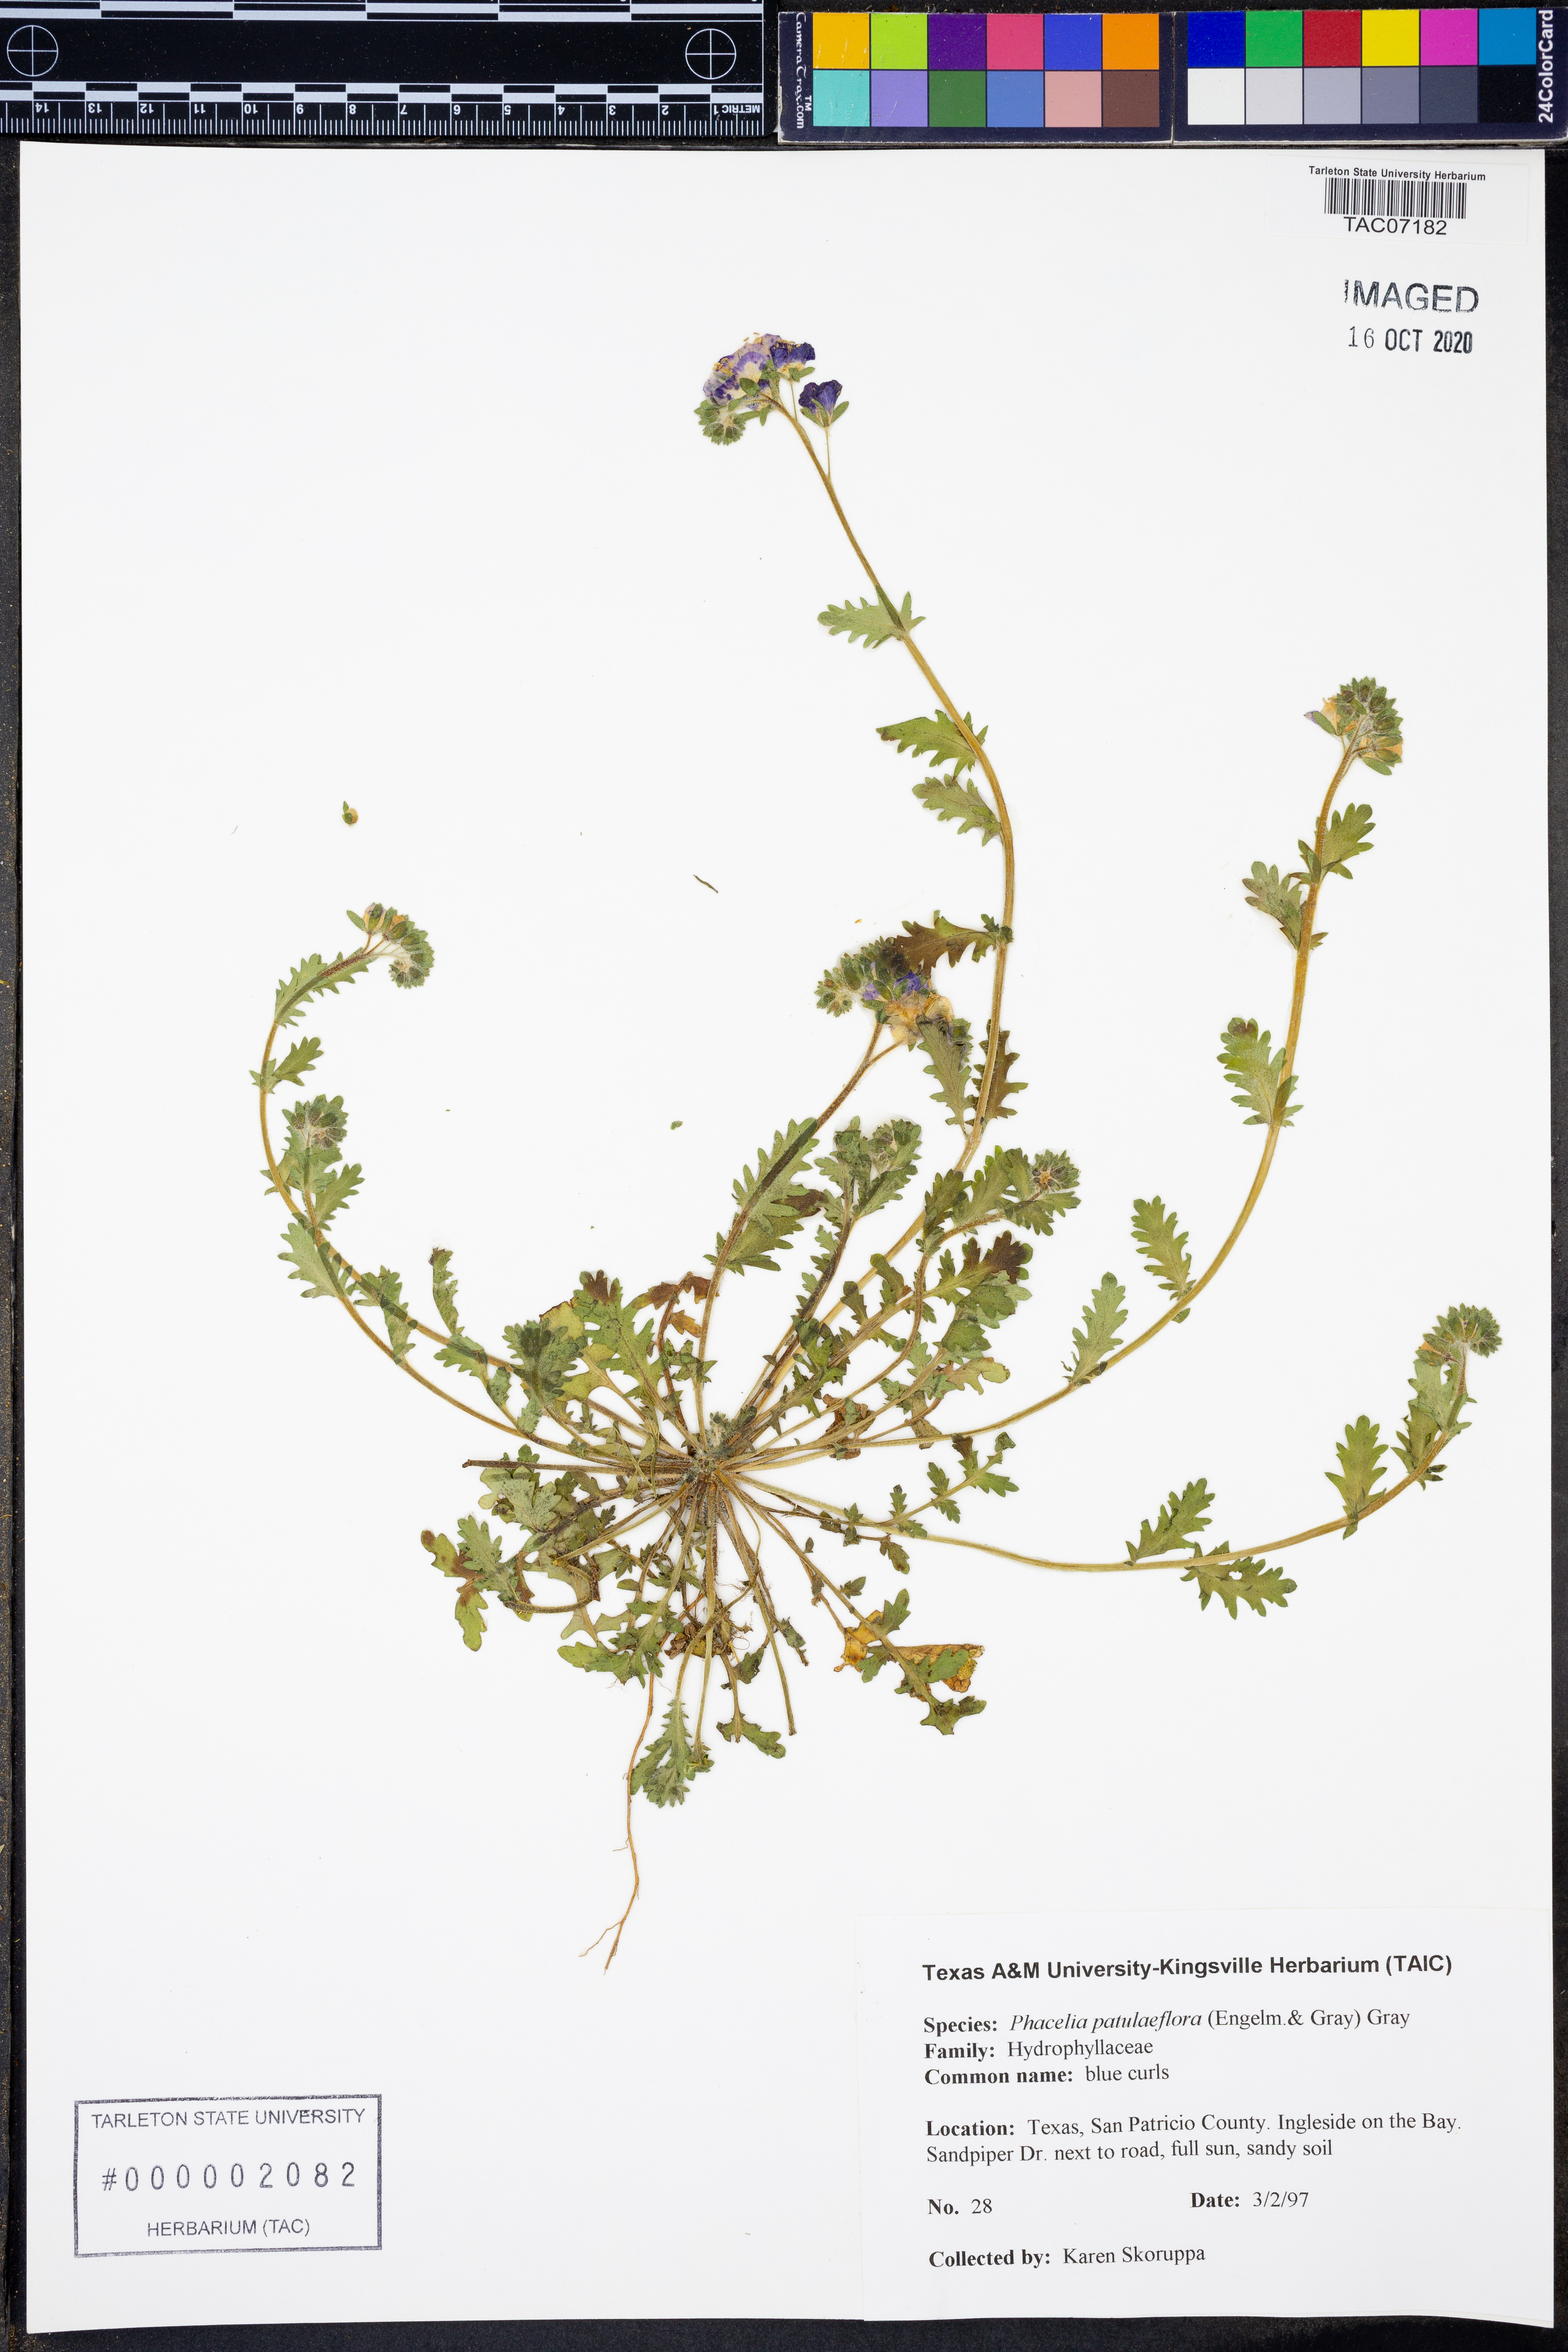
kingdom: Plantae
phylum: Tracheophyta
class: Magnoliopsida
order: Boraginales
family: Hydrophyllaceae
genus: Phacelia
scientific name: Phacelia patuliflora
